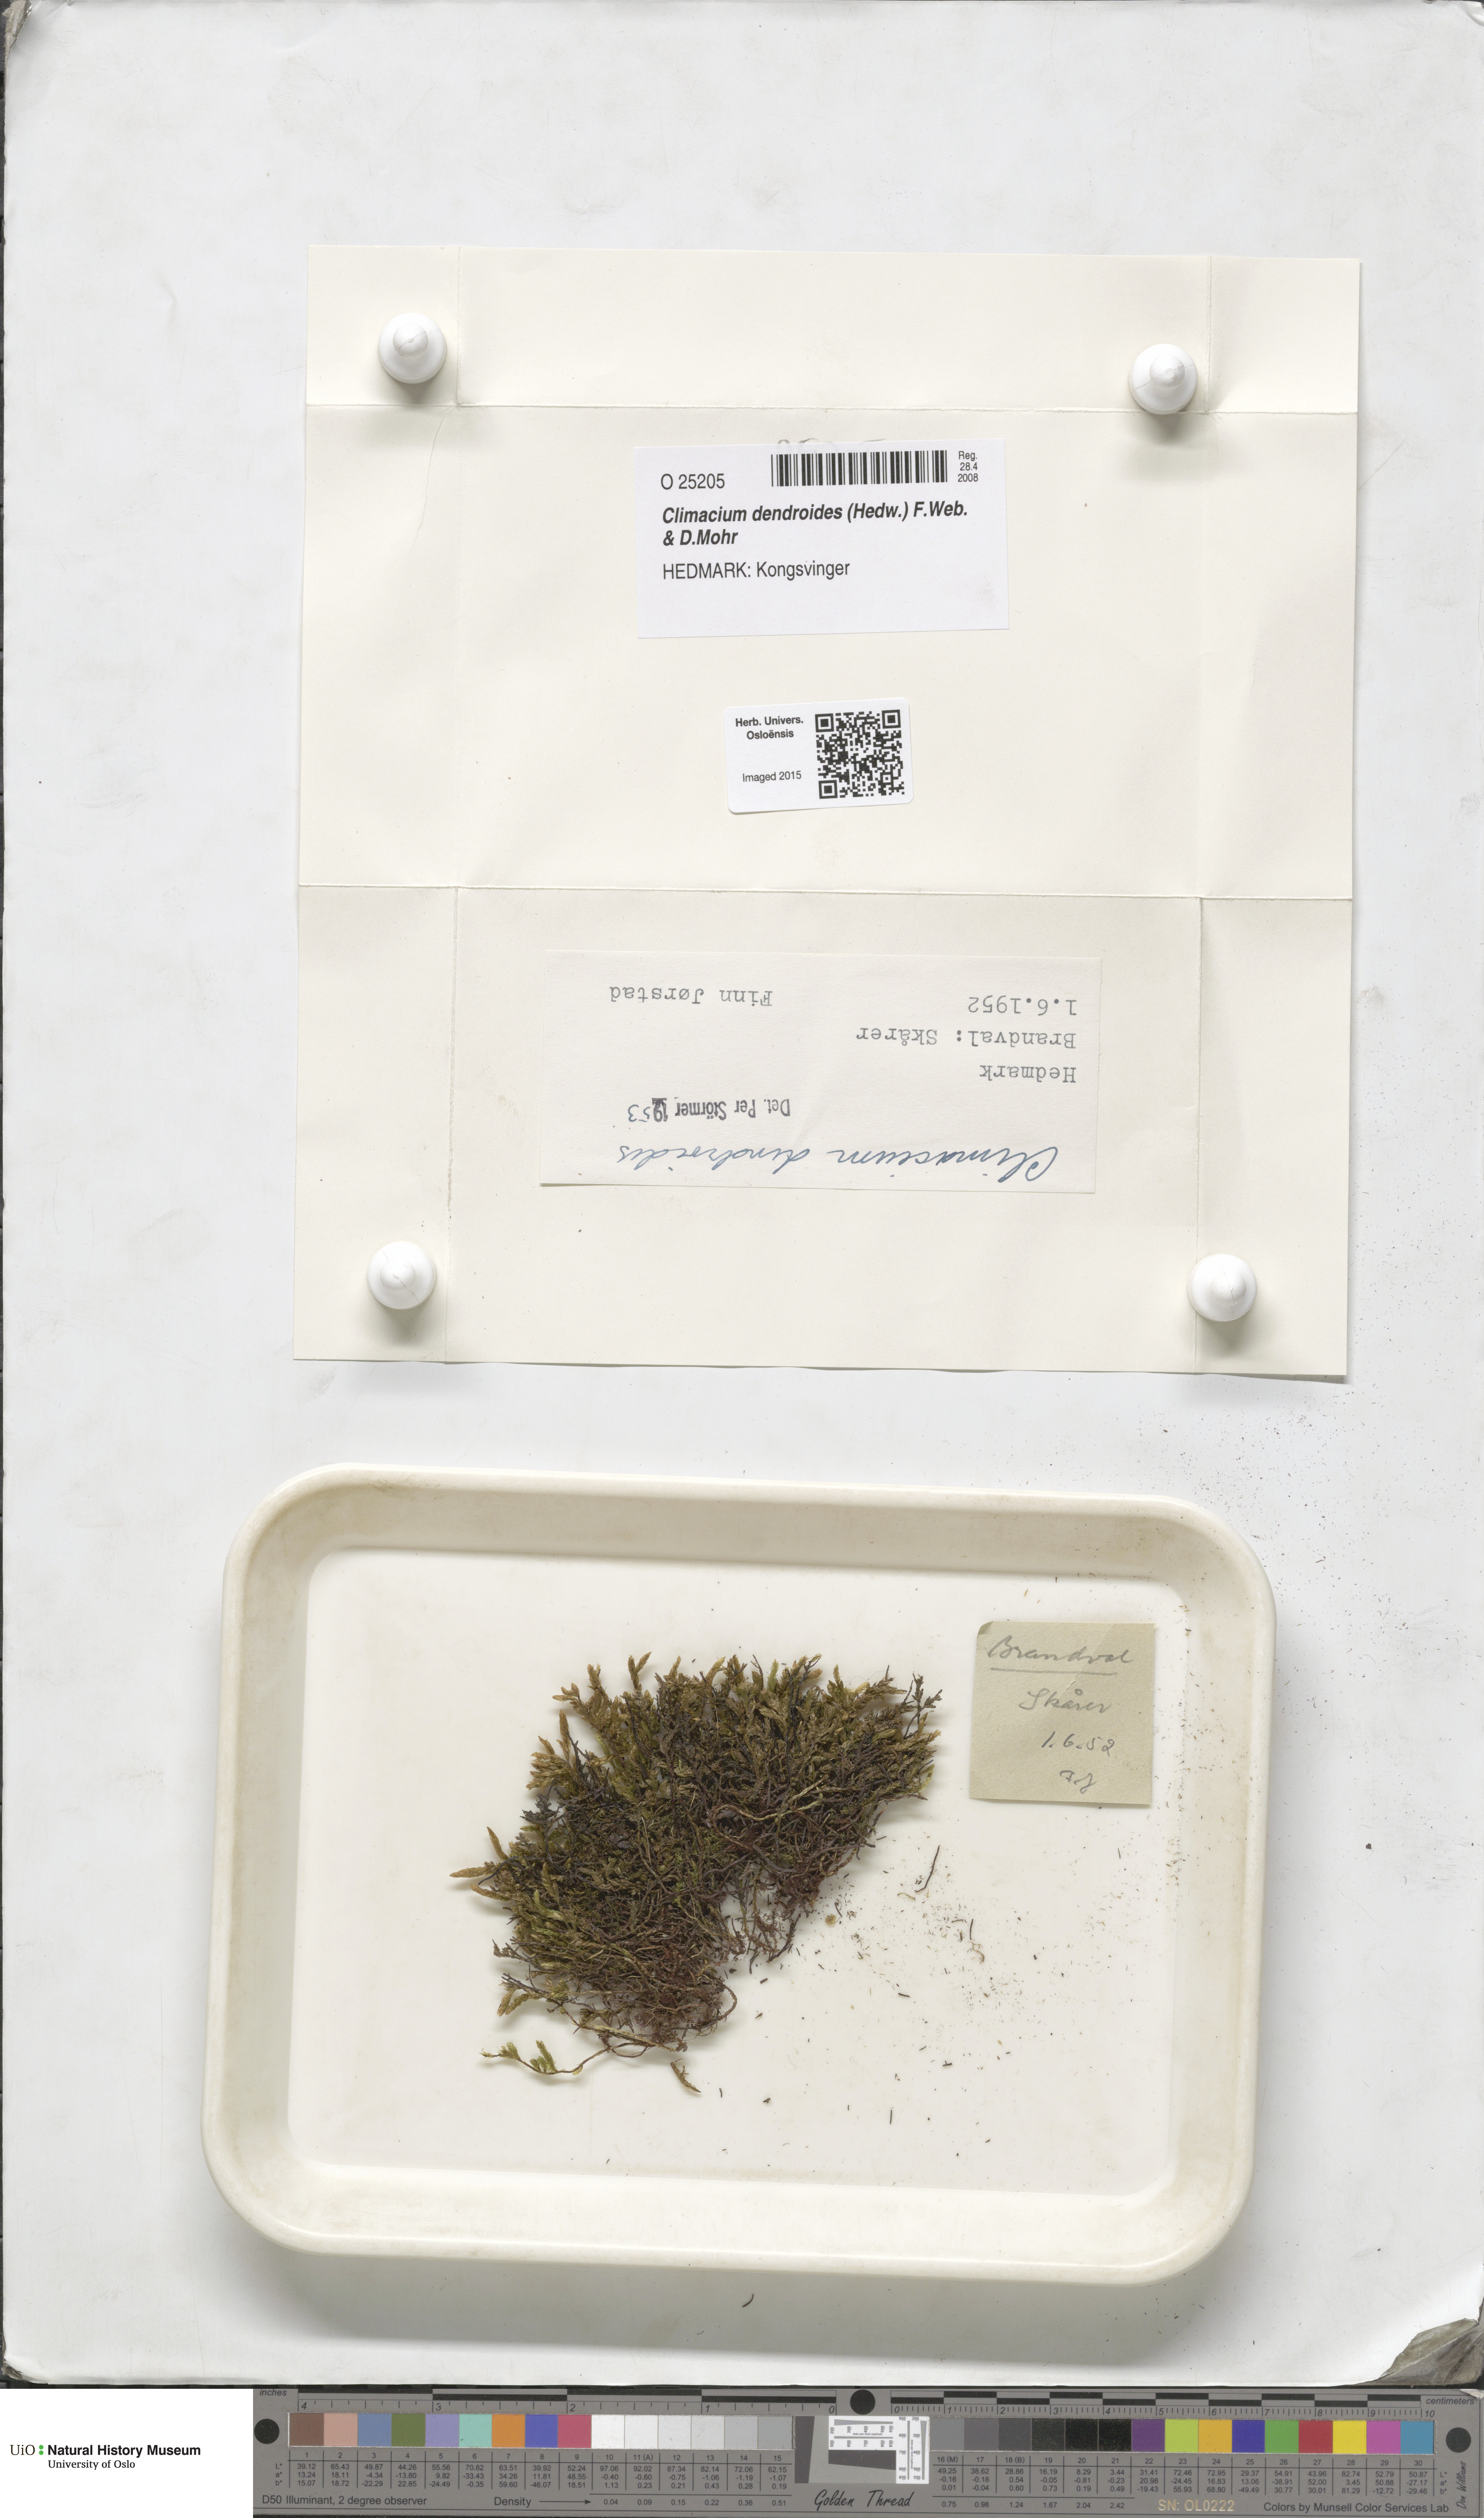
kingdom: Plantae
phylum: Bryophyta
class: Bryopsida
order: Hypnales
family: Climaciaceae
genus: Climacium
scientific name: Climacium dendroides
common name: Northern tree moss
